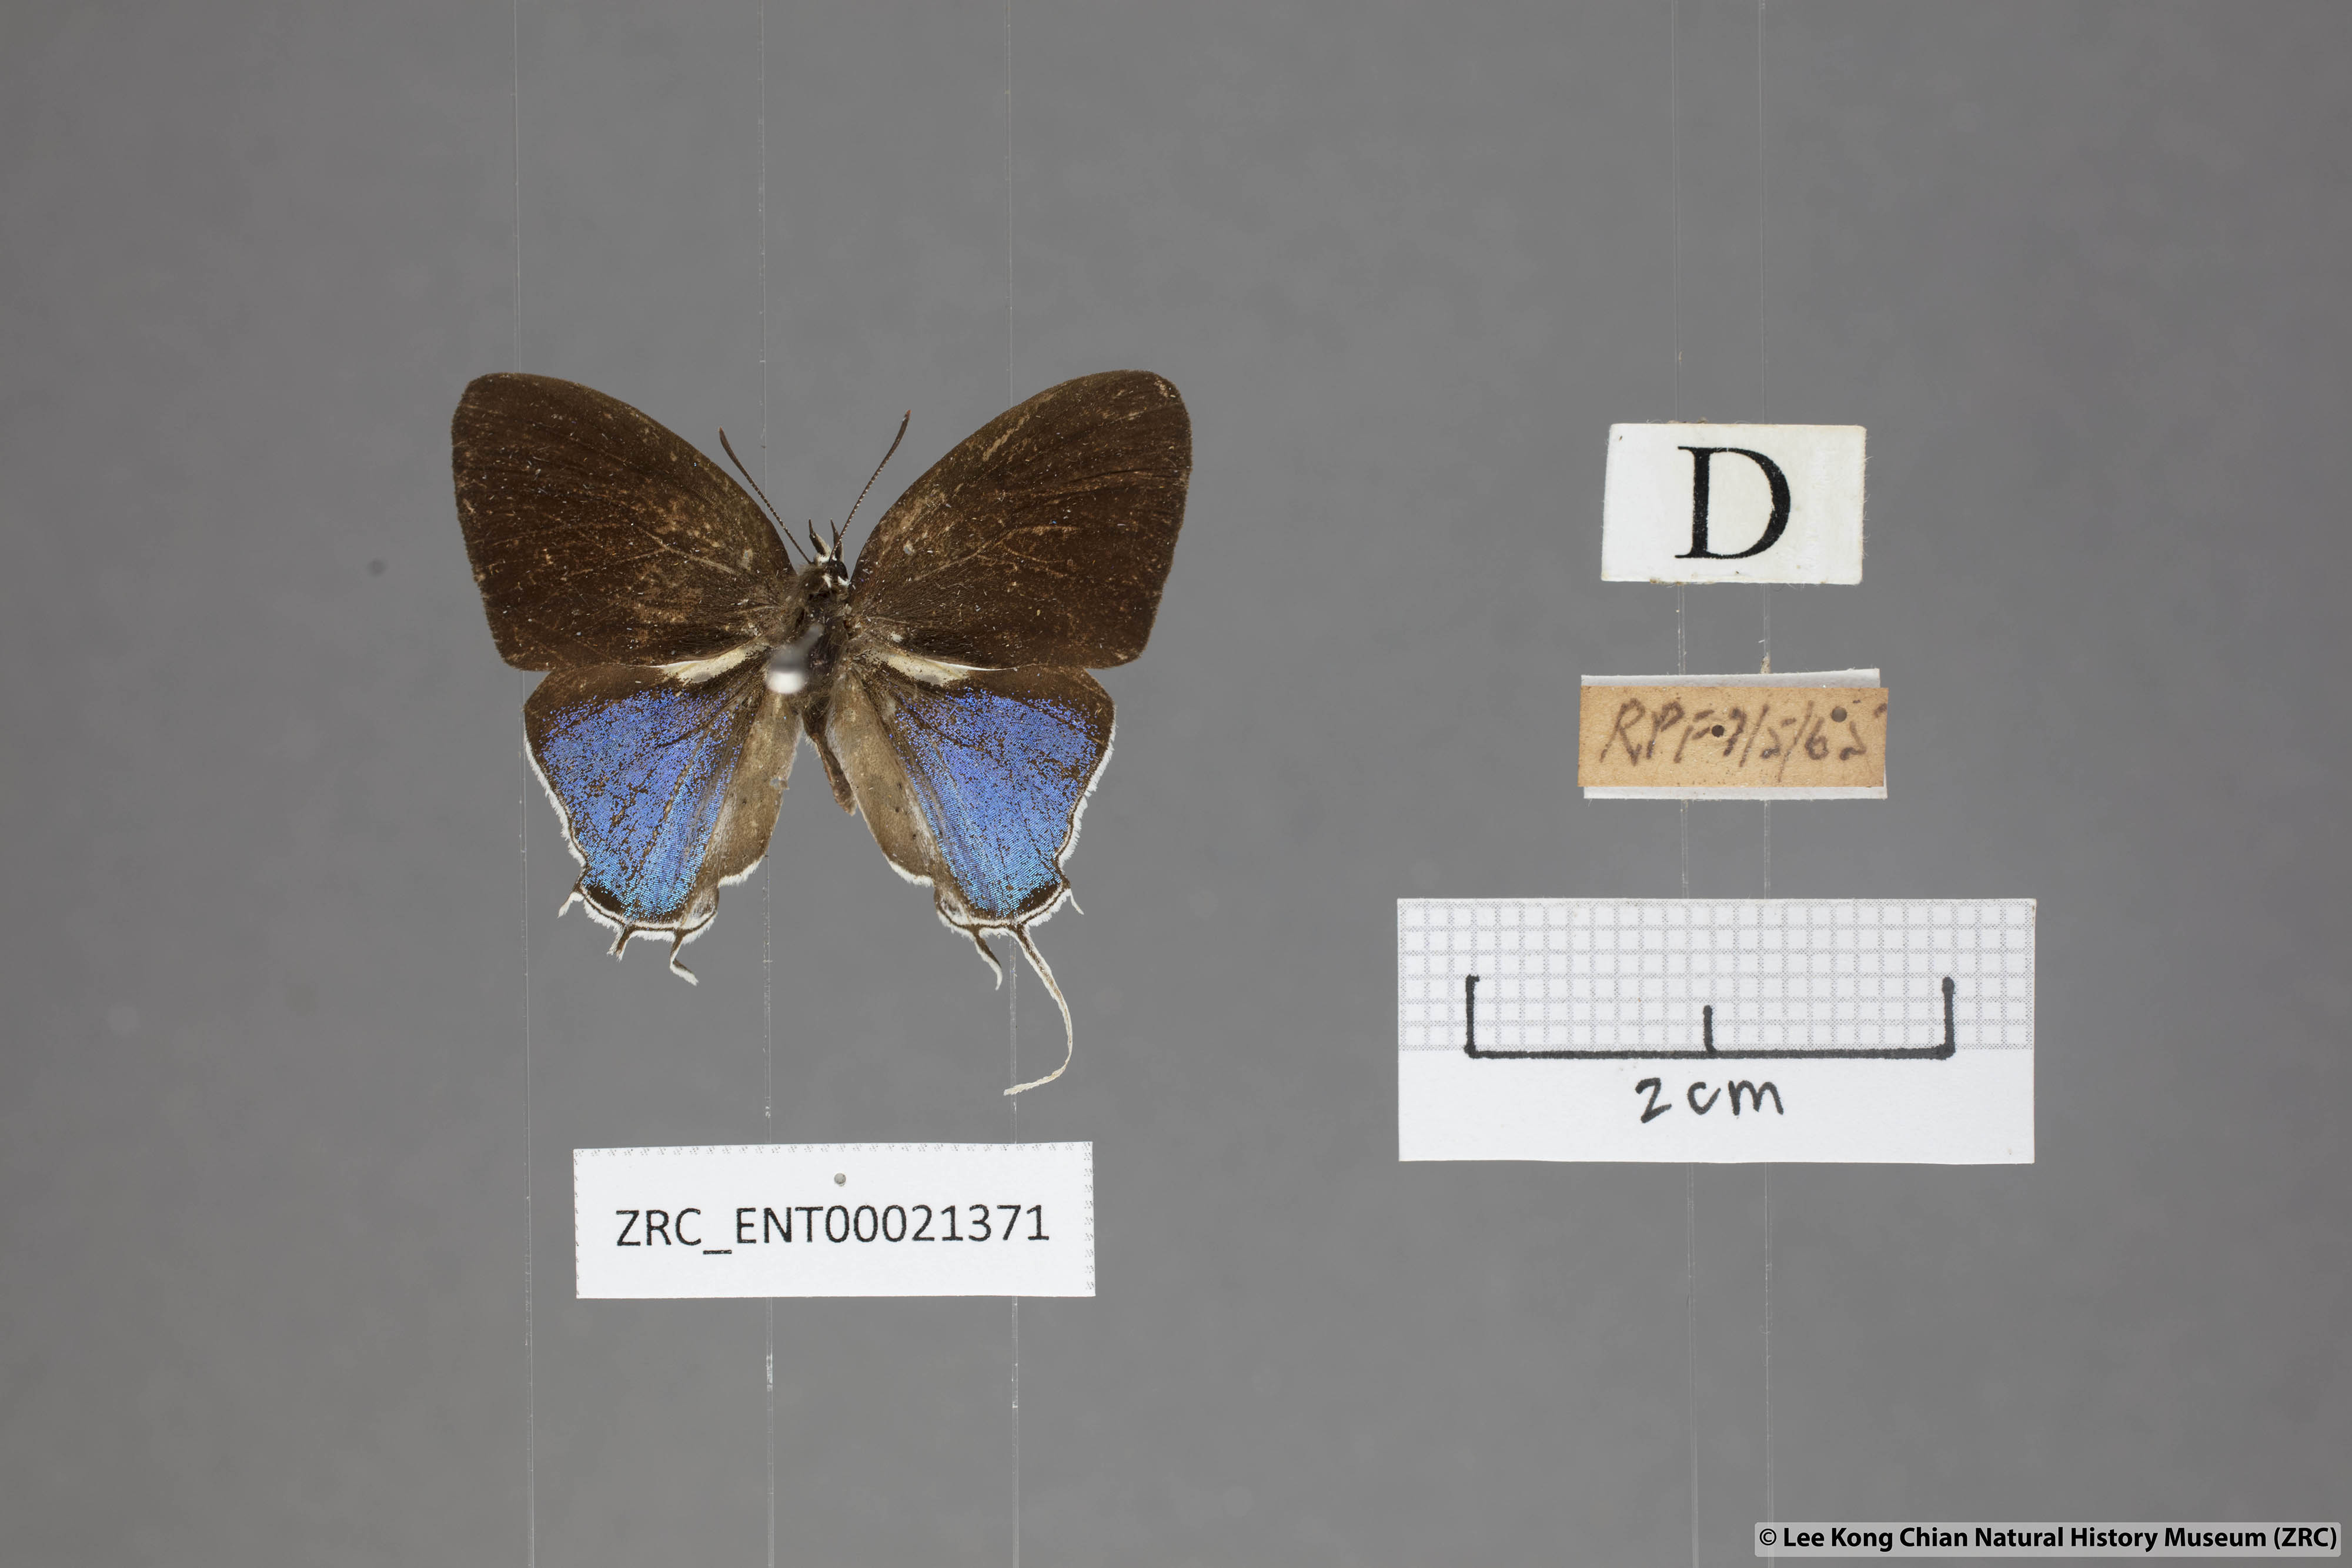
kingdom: Animalia
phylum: Arthropoda
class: Insecta
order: Lepidoptera
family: Lycaenidae
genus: Drupadia
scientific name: Drupadia ravindra
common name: Common posy
